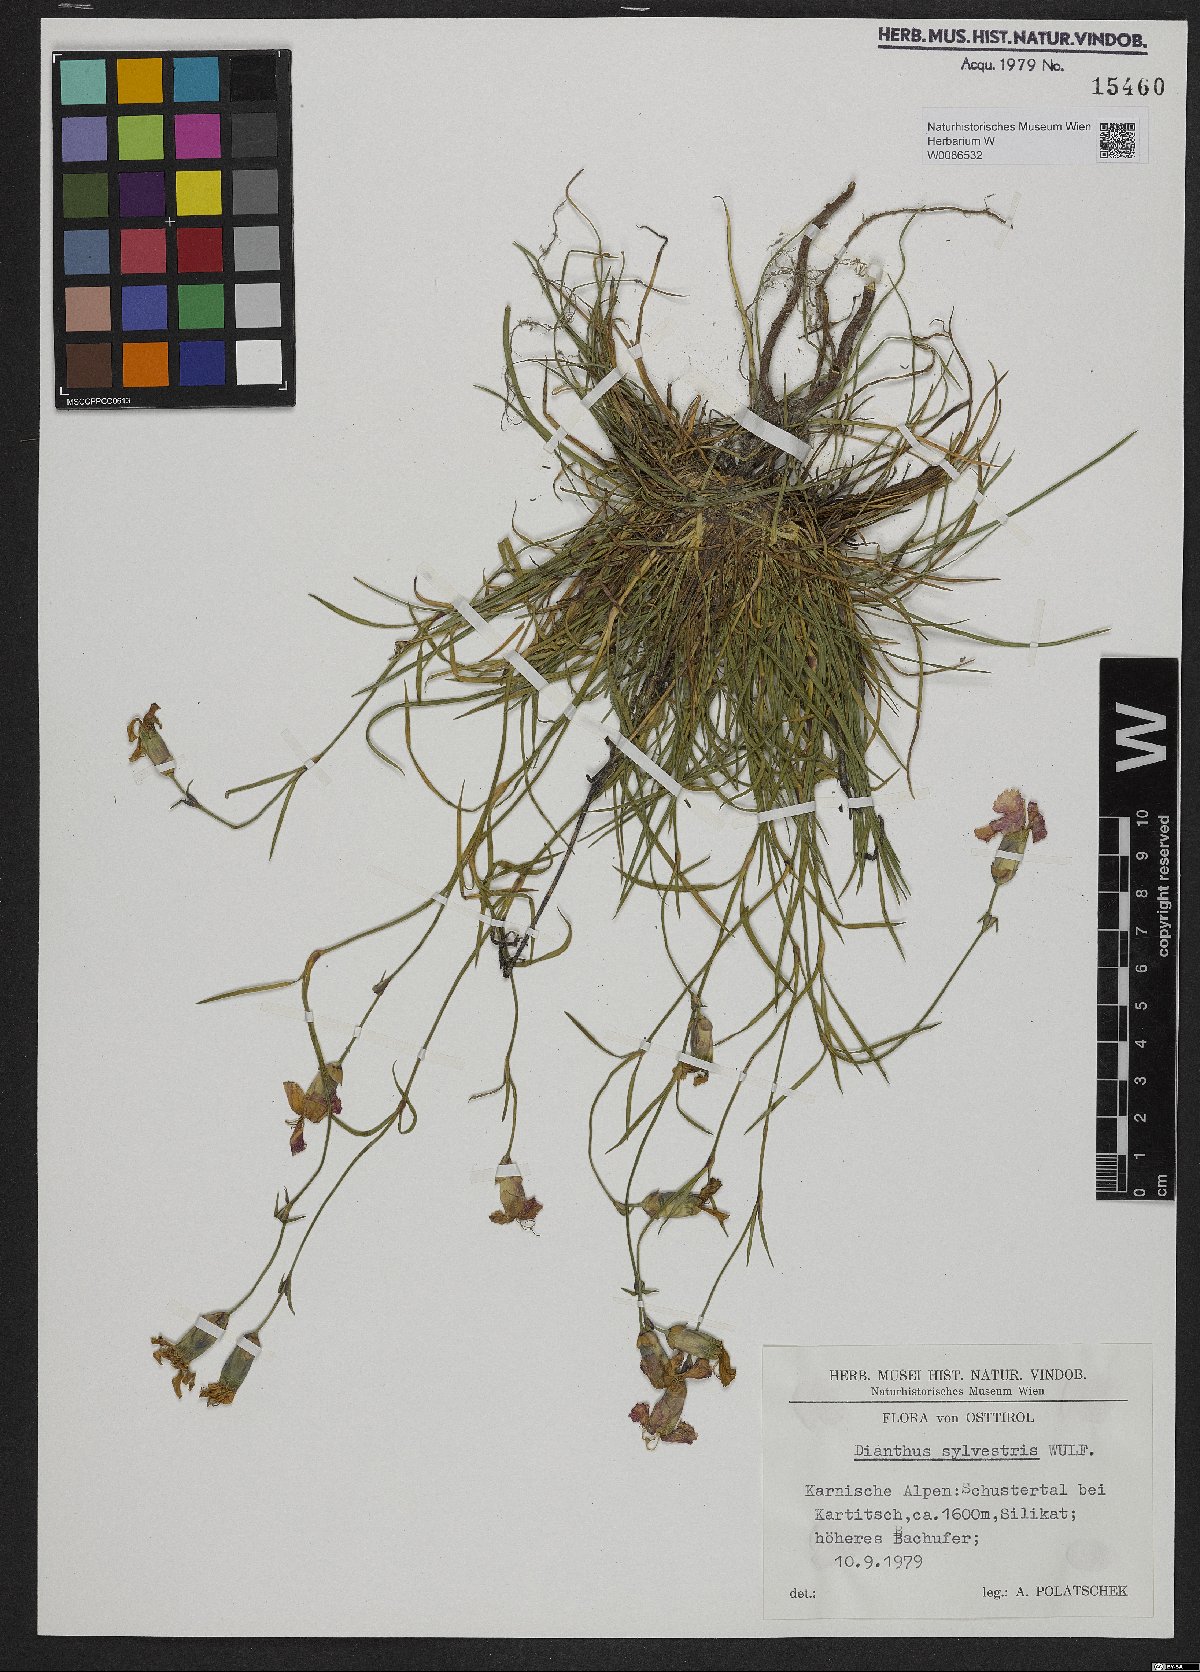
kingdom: Plantae
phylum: Tracheophyta
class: Magnoliopsida
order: Caryophyllales
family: Caryophyllaceae
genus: Dianthus
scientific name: Dianthus sylvestris
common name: Wood pink
